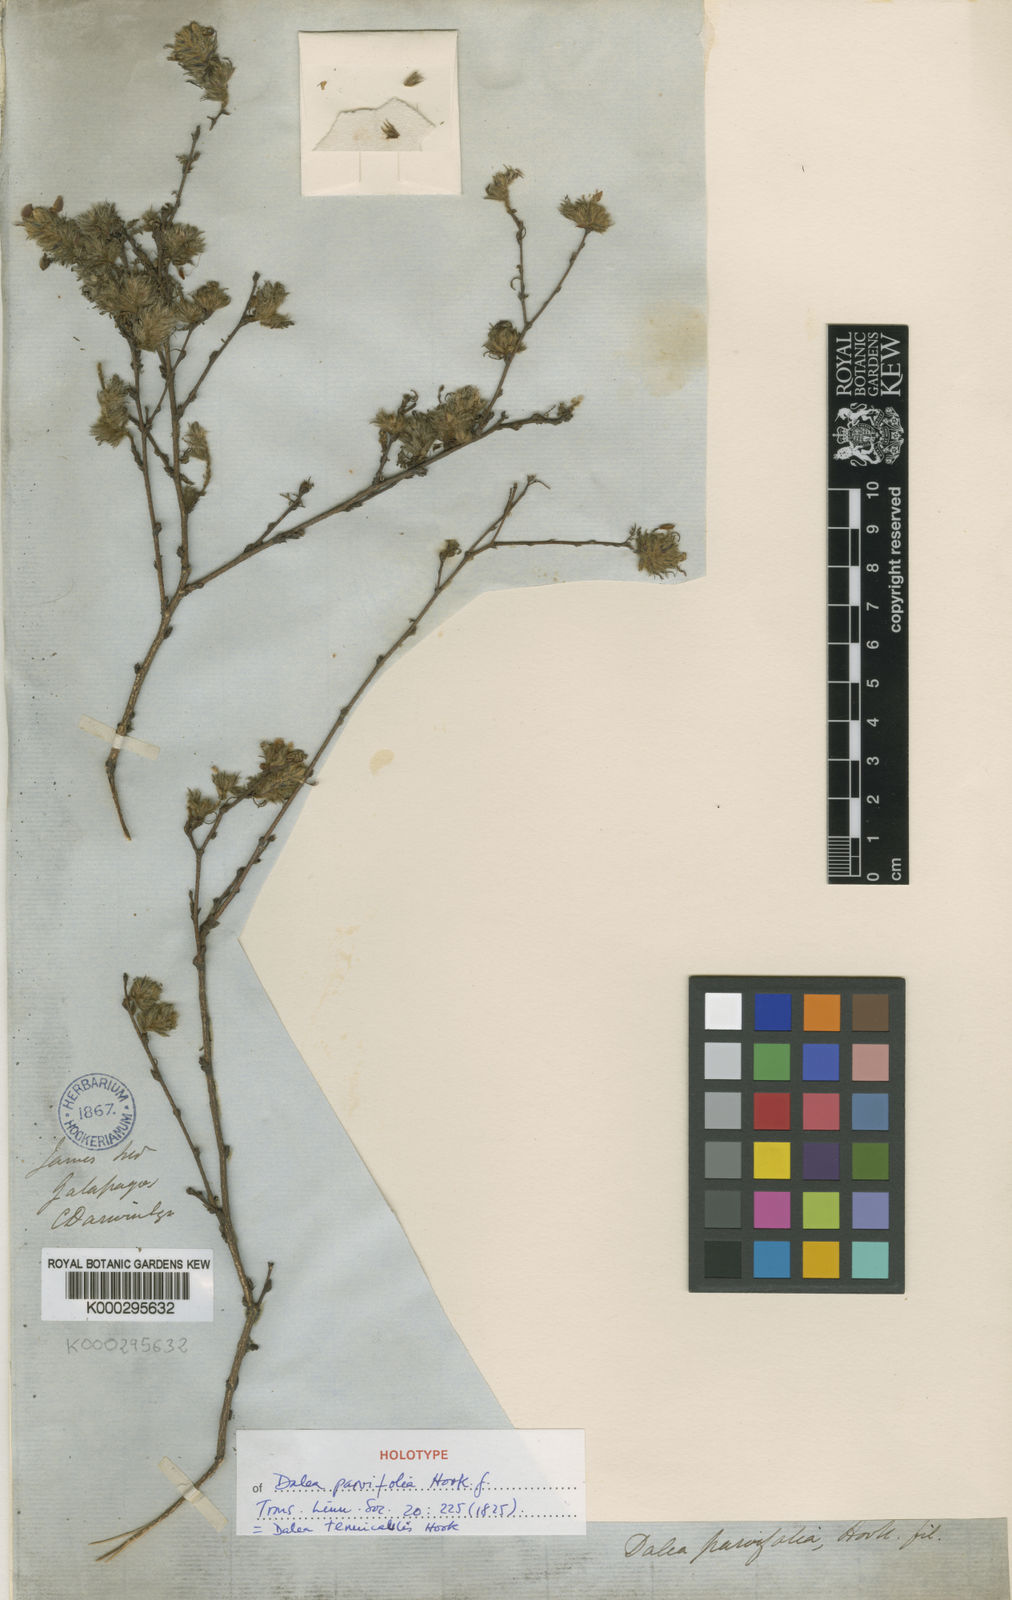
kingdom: Plantae
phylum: Tracheophyta
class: Magnoliopsida
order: Fabales
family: Fabaceae
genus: Dalea
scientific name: Dalea tenuicaulis
